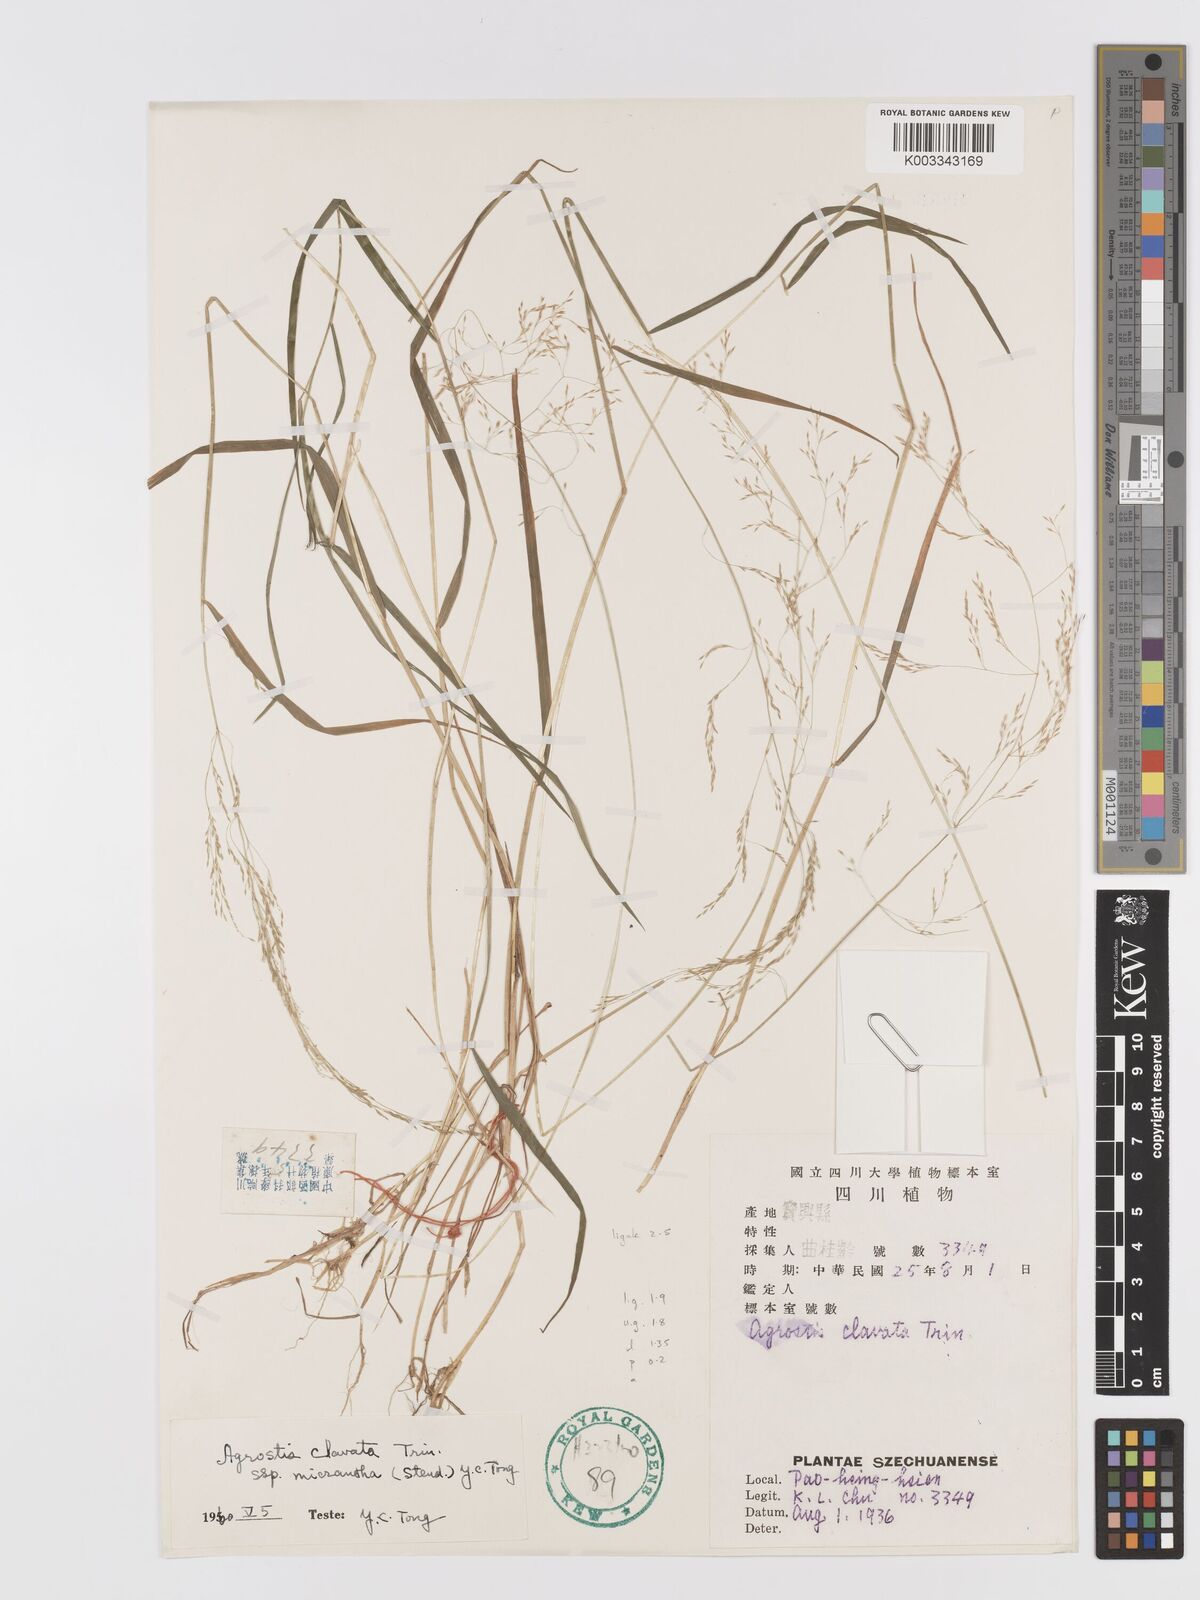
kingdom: Plantae
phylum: Tracheophyta
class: Liliopsida
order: Poales
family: Poaceae
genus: Agrostis
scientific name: Agrostis clavata
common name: Clavate bent
